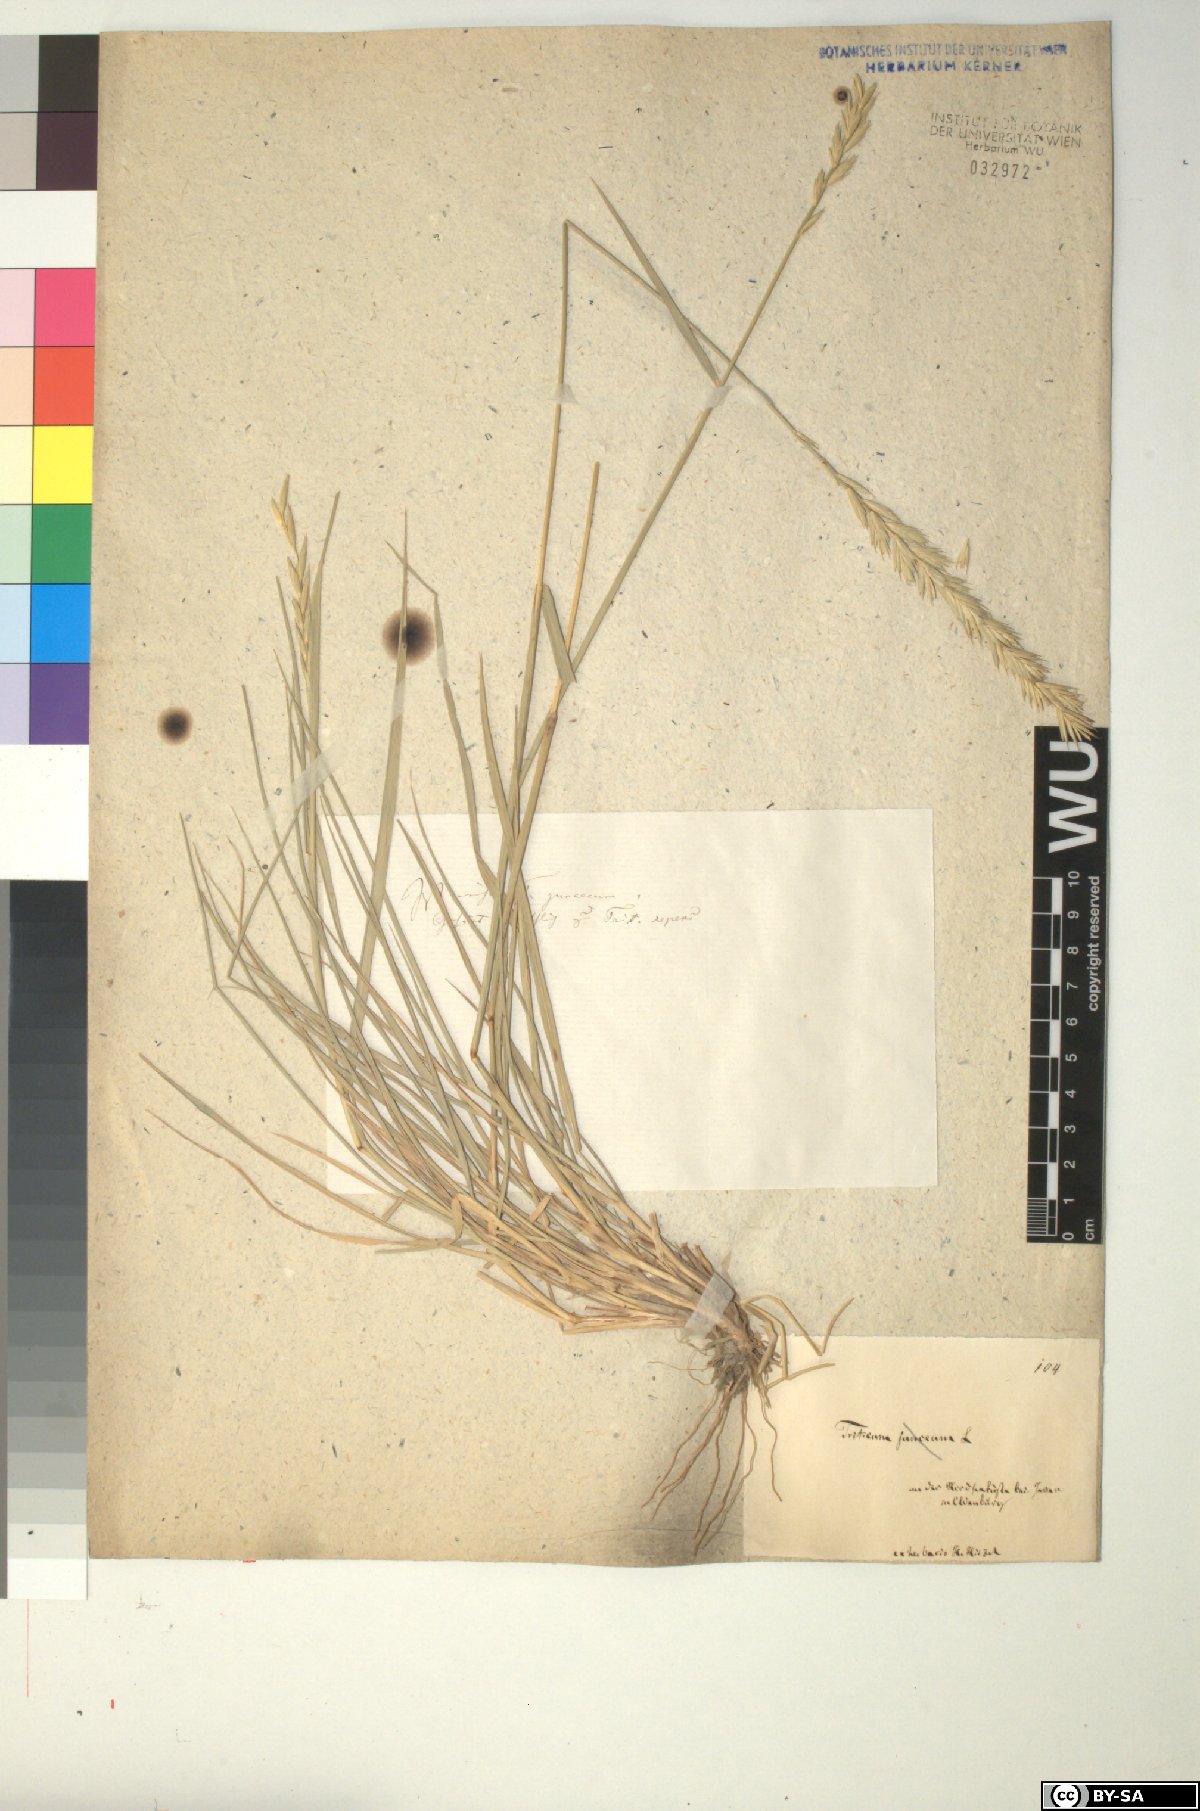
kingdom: Plantae
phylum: Tracheophyta
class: Liliopsida
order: Poales
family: Poaceae
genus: Elymus
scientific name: Elymus repens
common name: Quackgrass
